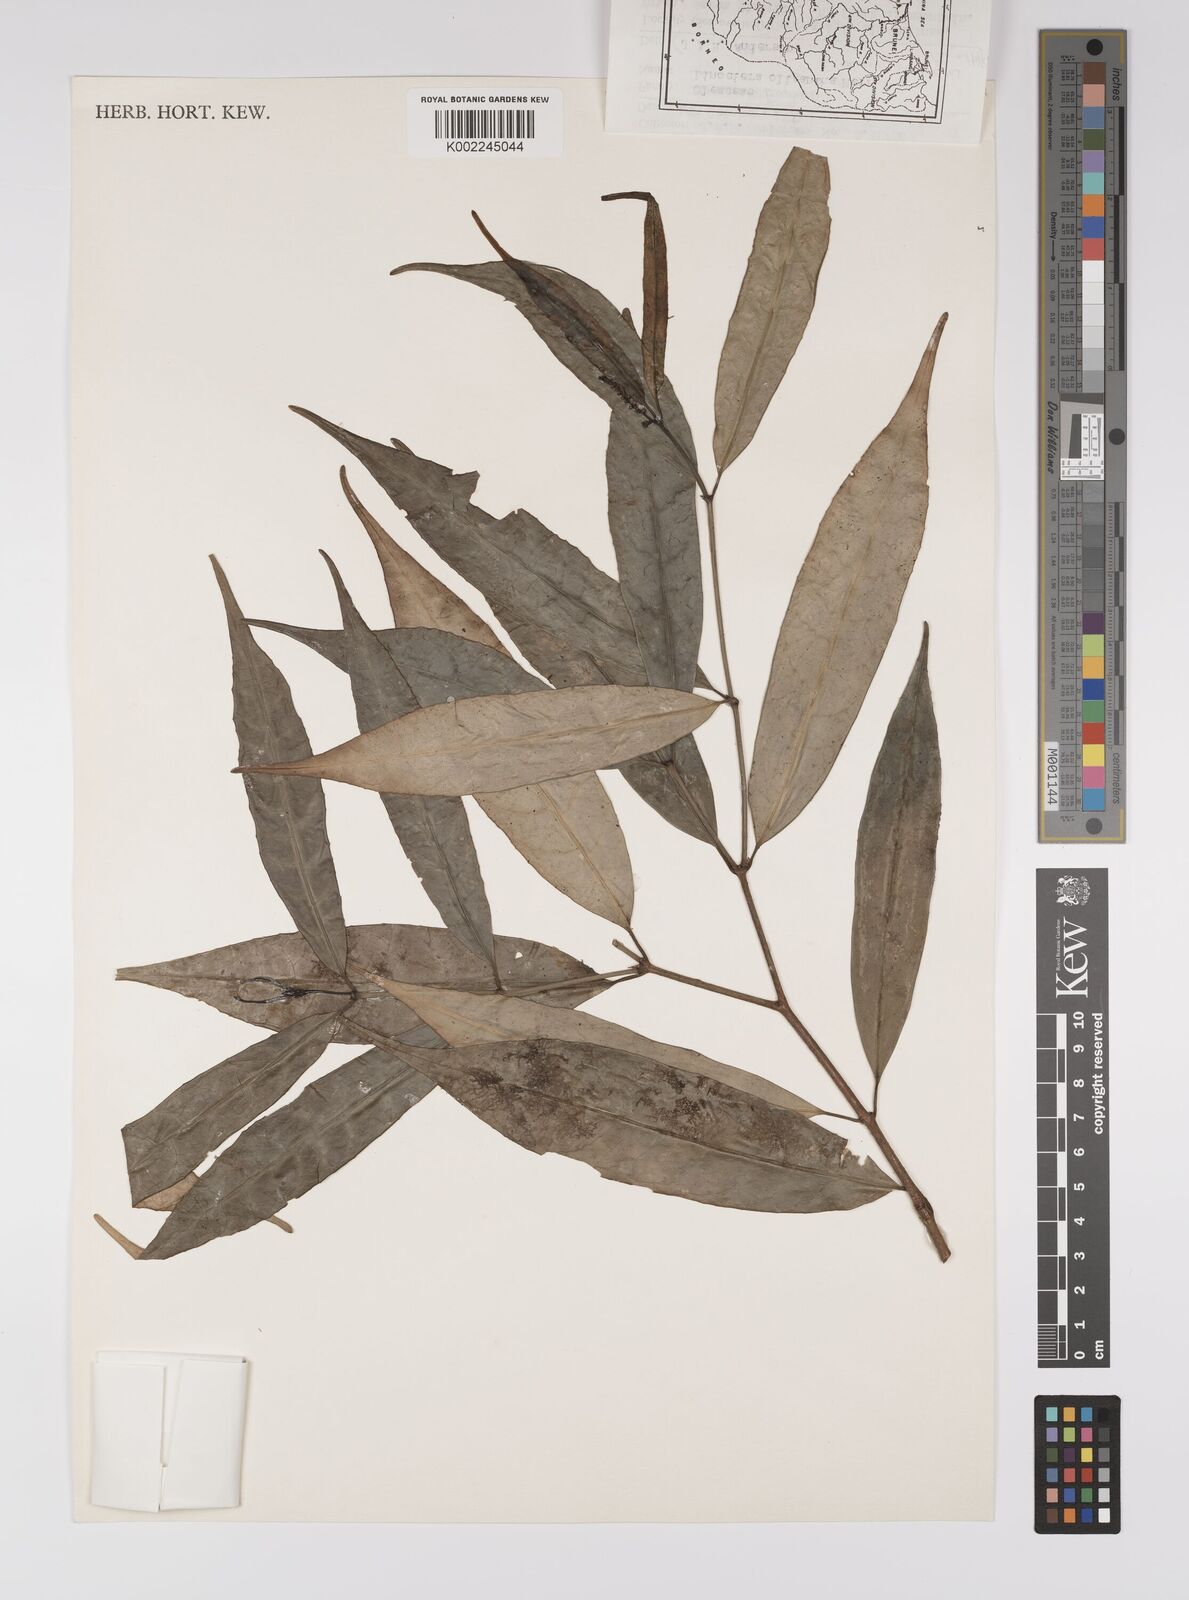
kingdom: Plantae
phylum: Tracheophyta
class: Magnoliopsida
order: Malpighiales
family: Euphorbiaceae
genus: Excoecaria
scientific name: Excoecaria borneensis
